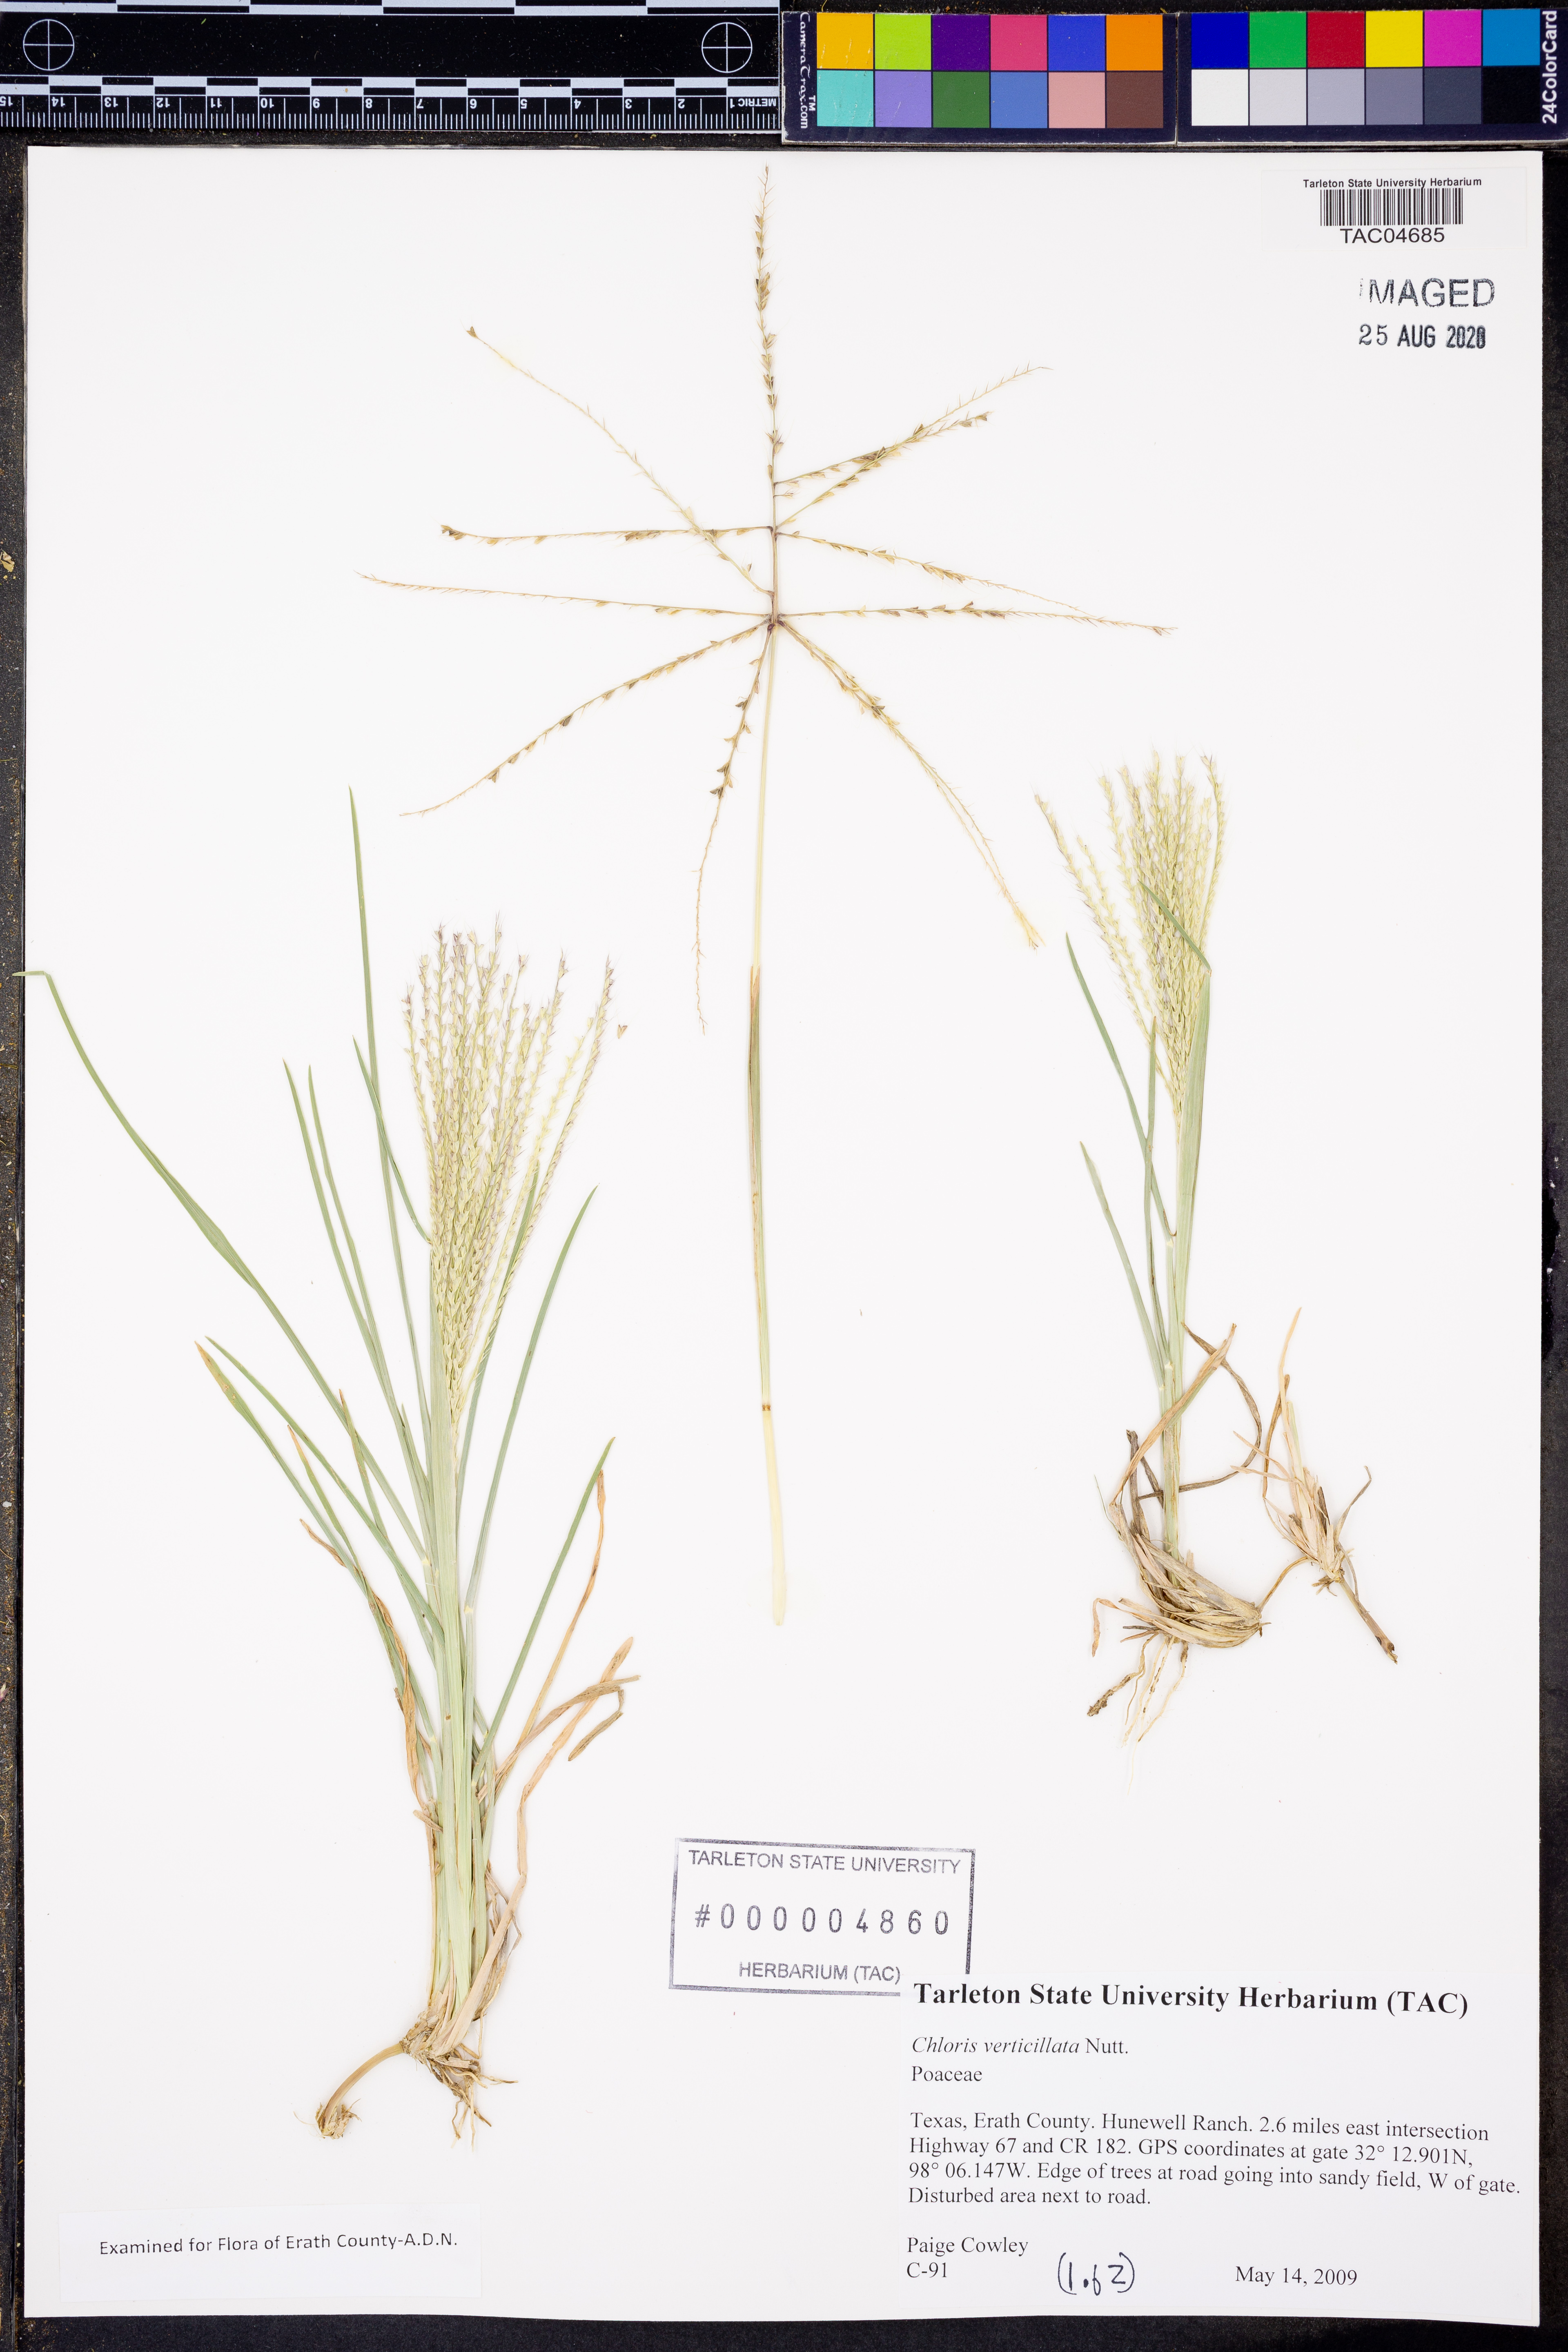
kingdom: Plantae
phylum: Tracheophyta
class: Liliopsida
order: Poales
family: Poaceae
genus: Chloris
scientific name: Chloris virgata
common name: Feathery rhodes-grass
